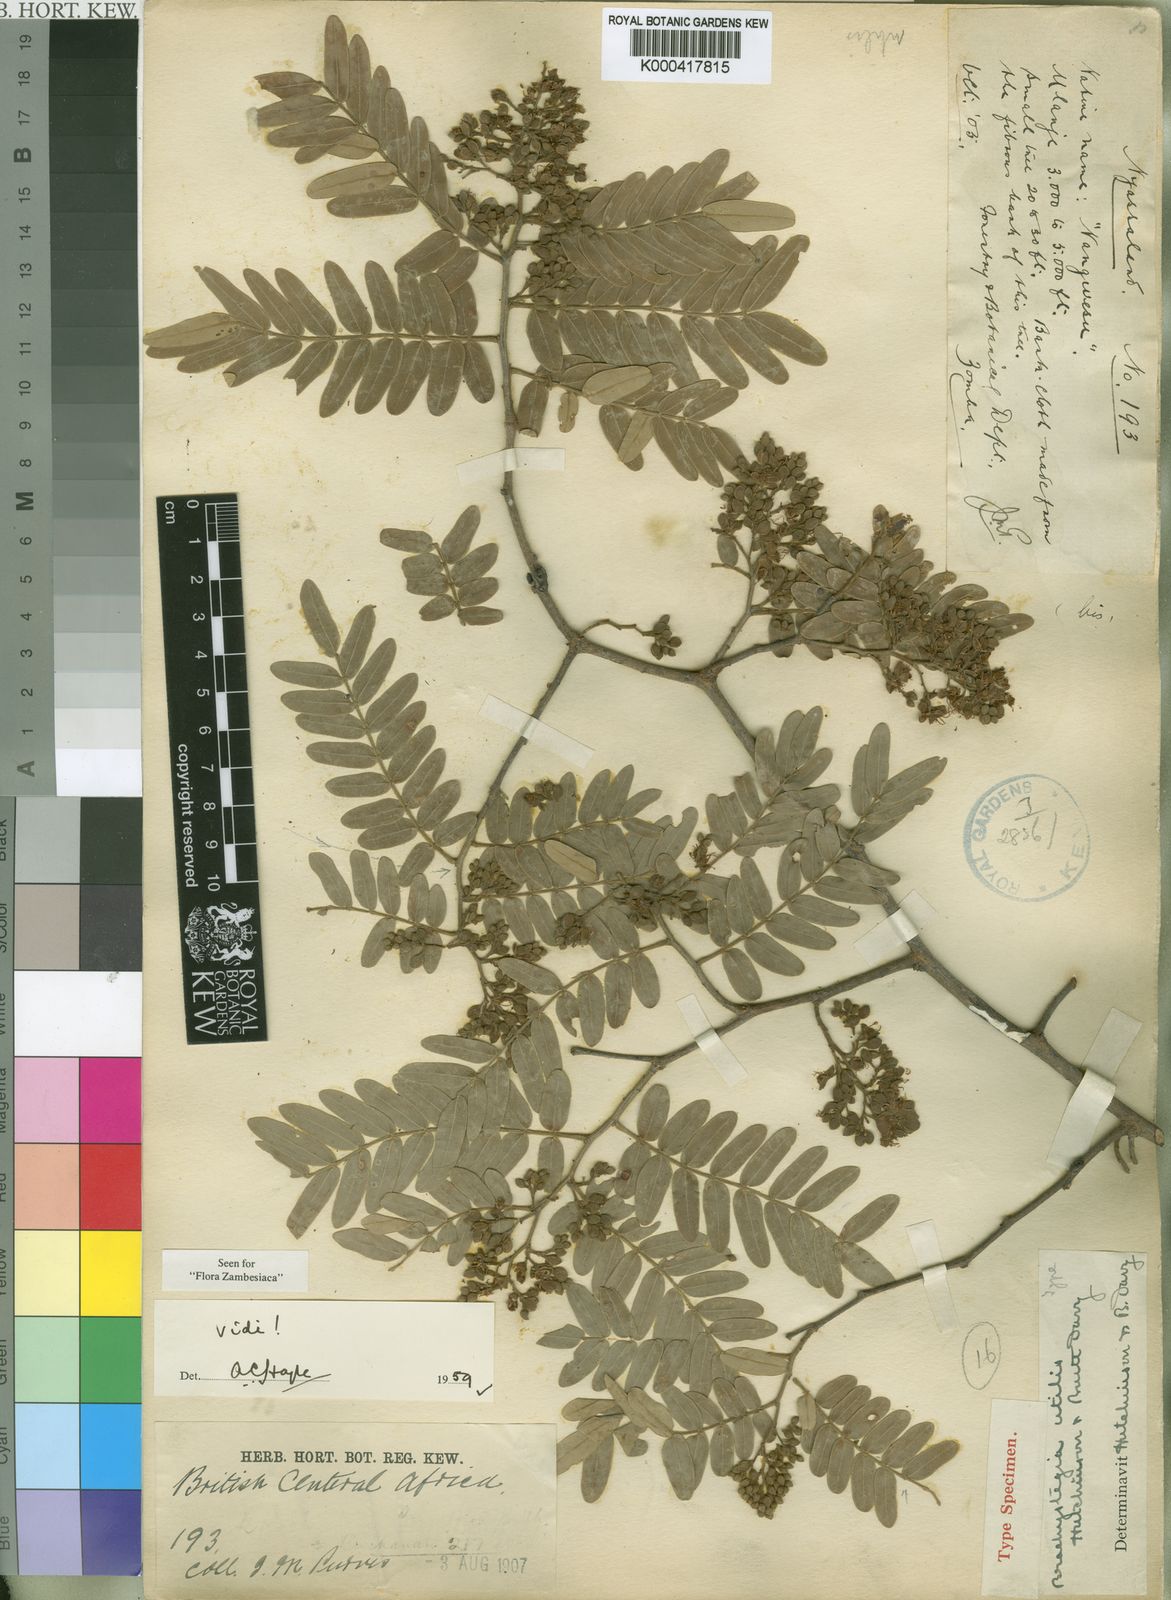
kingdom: Plantae
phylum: Tracheophyta
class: Magnoliopsida
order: Fabales
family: Fabaceae
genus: Brachystegia
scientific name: Brachystegia utilis
